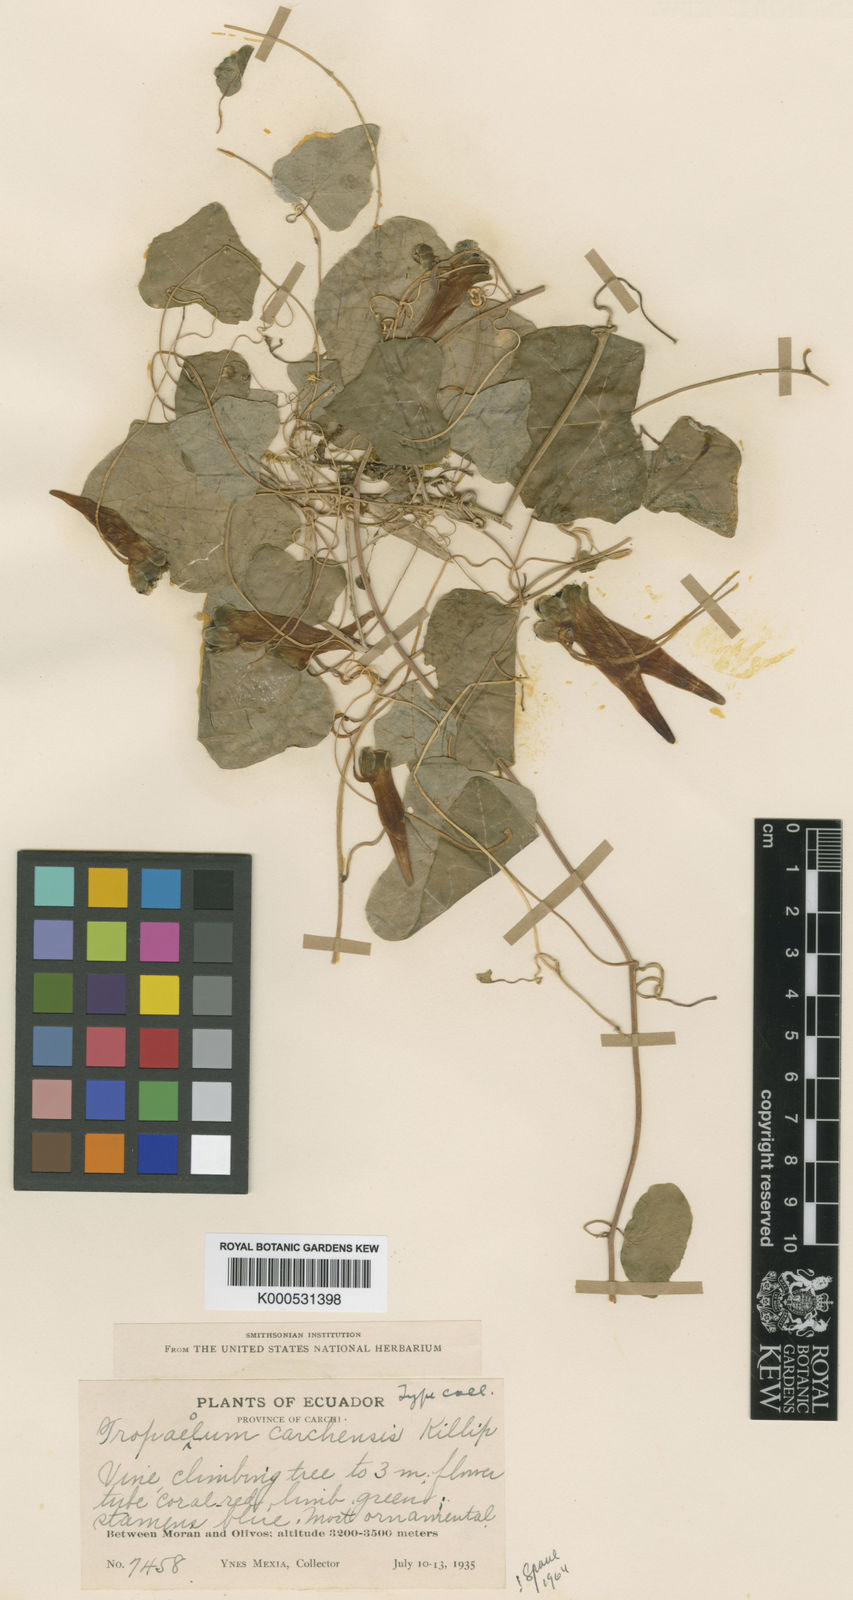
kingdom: Plantae
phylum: Tracheophyta
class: Magnoliopsida
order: Brassicales
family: Tropaeolaceae
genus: Tropaeolum
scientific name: Tropaeolum carchense
